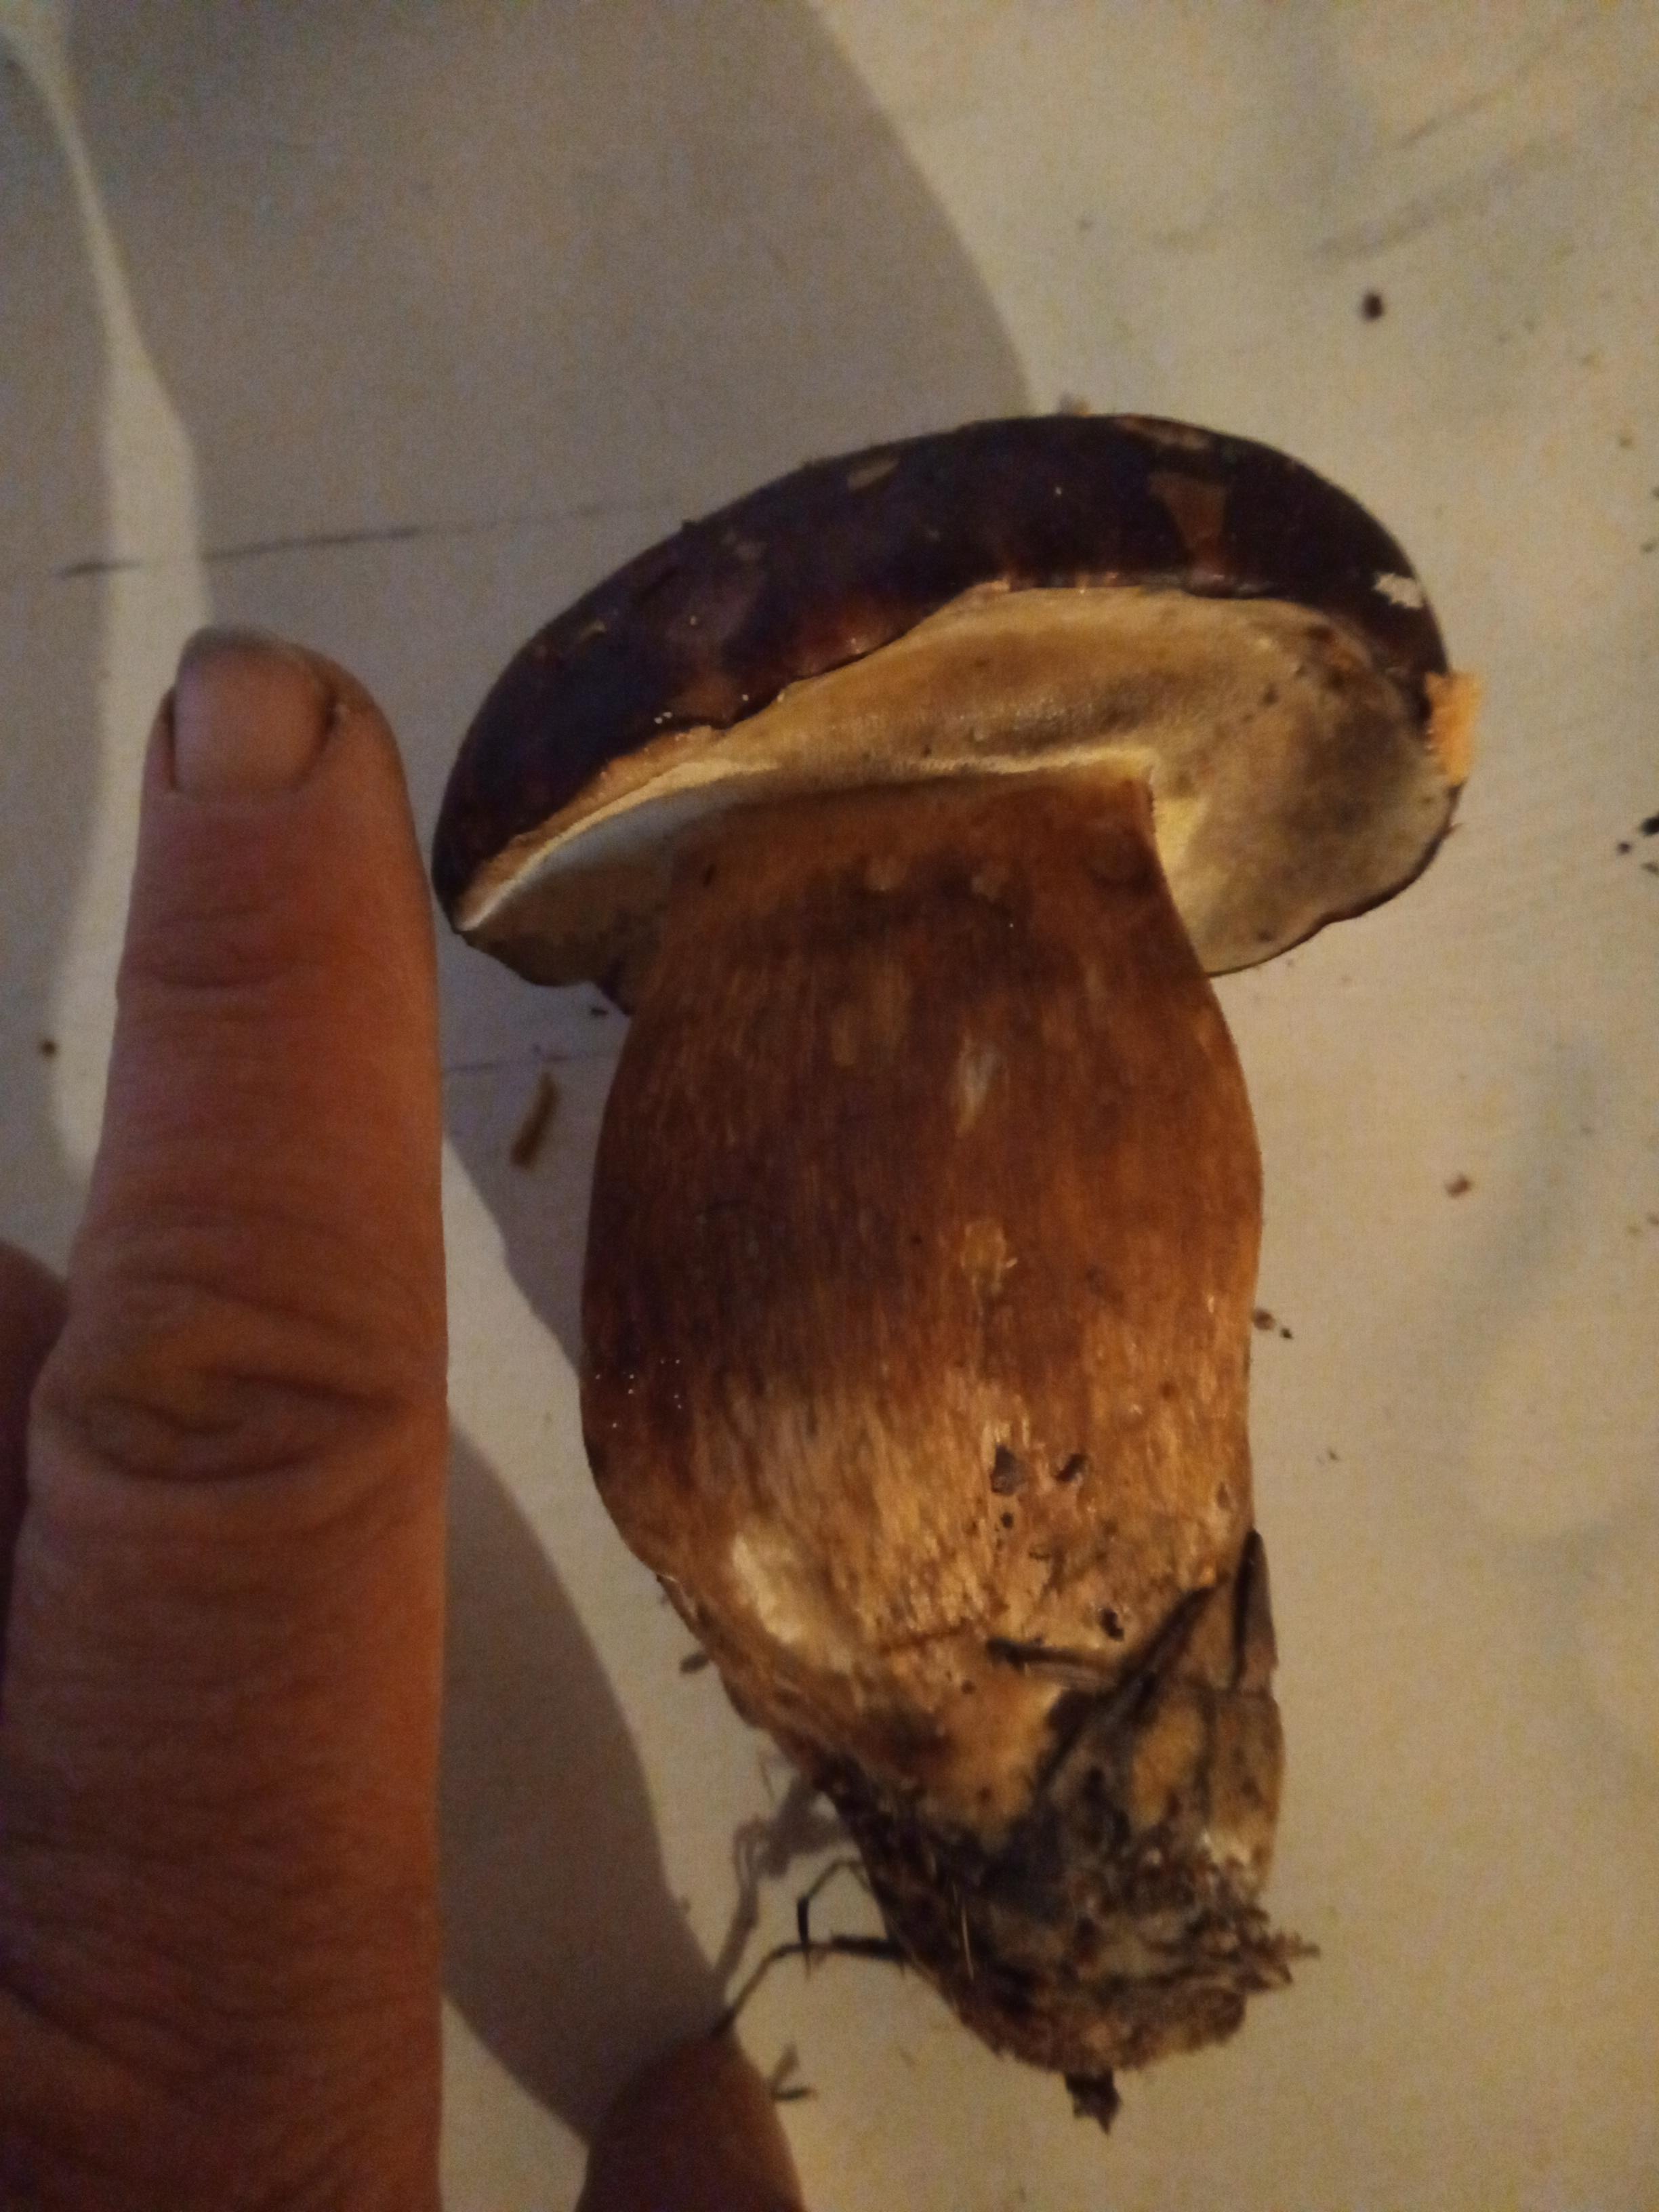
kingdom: Fungi
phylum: Basidiomycota
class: Agaricomycetes
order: Boletales
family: Boletaceae
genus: Imleria
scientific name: Imleria badia
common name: brunstokket rørhat
